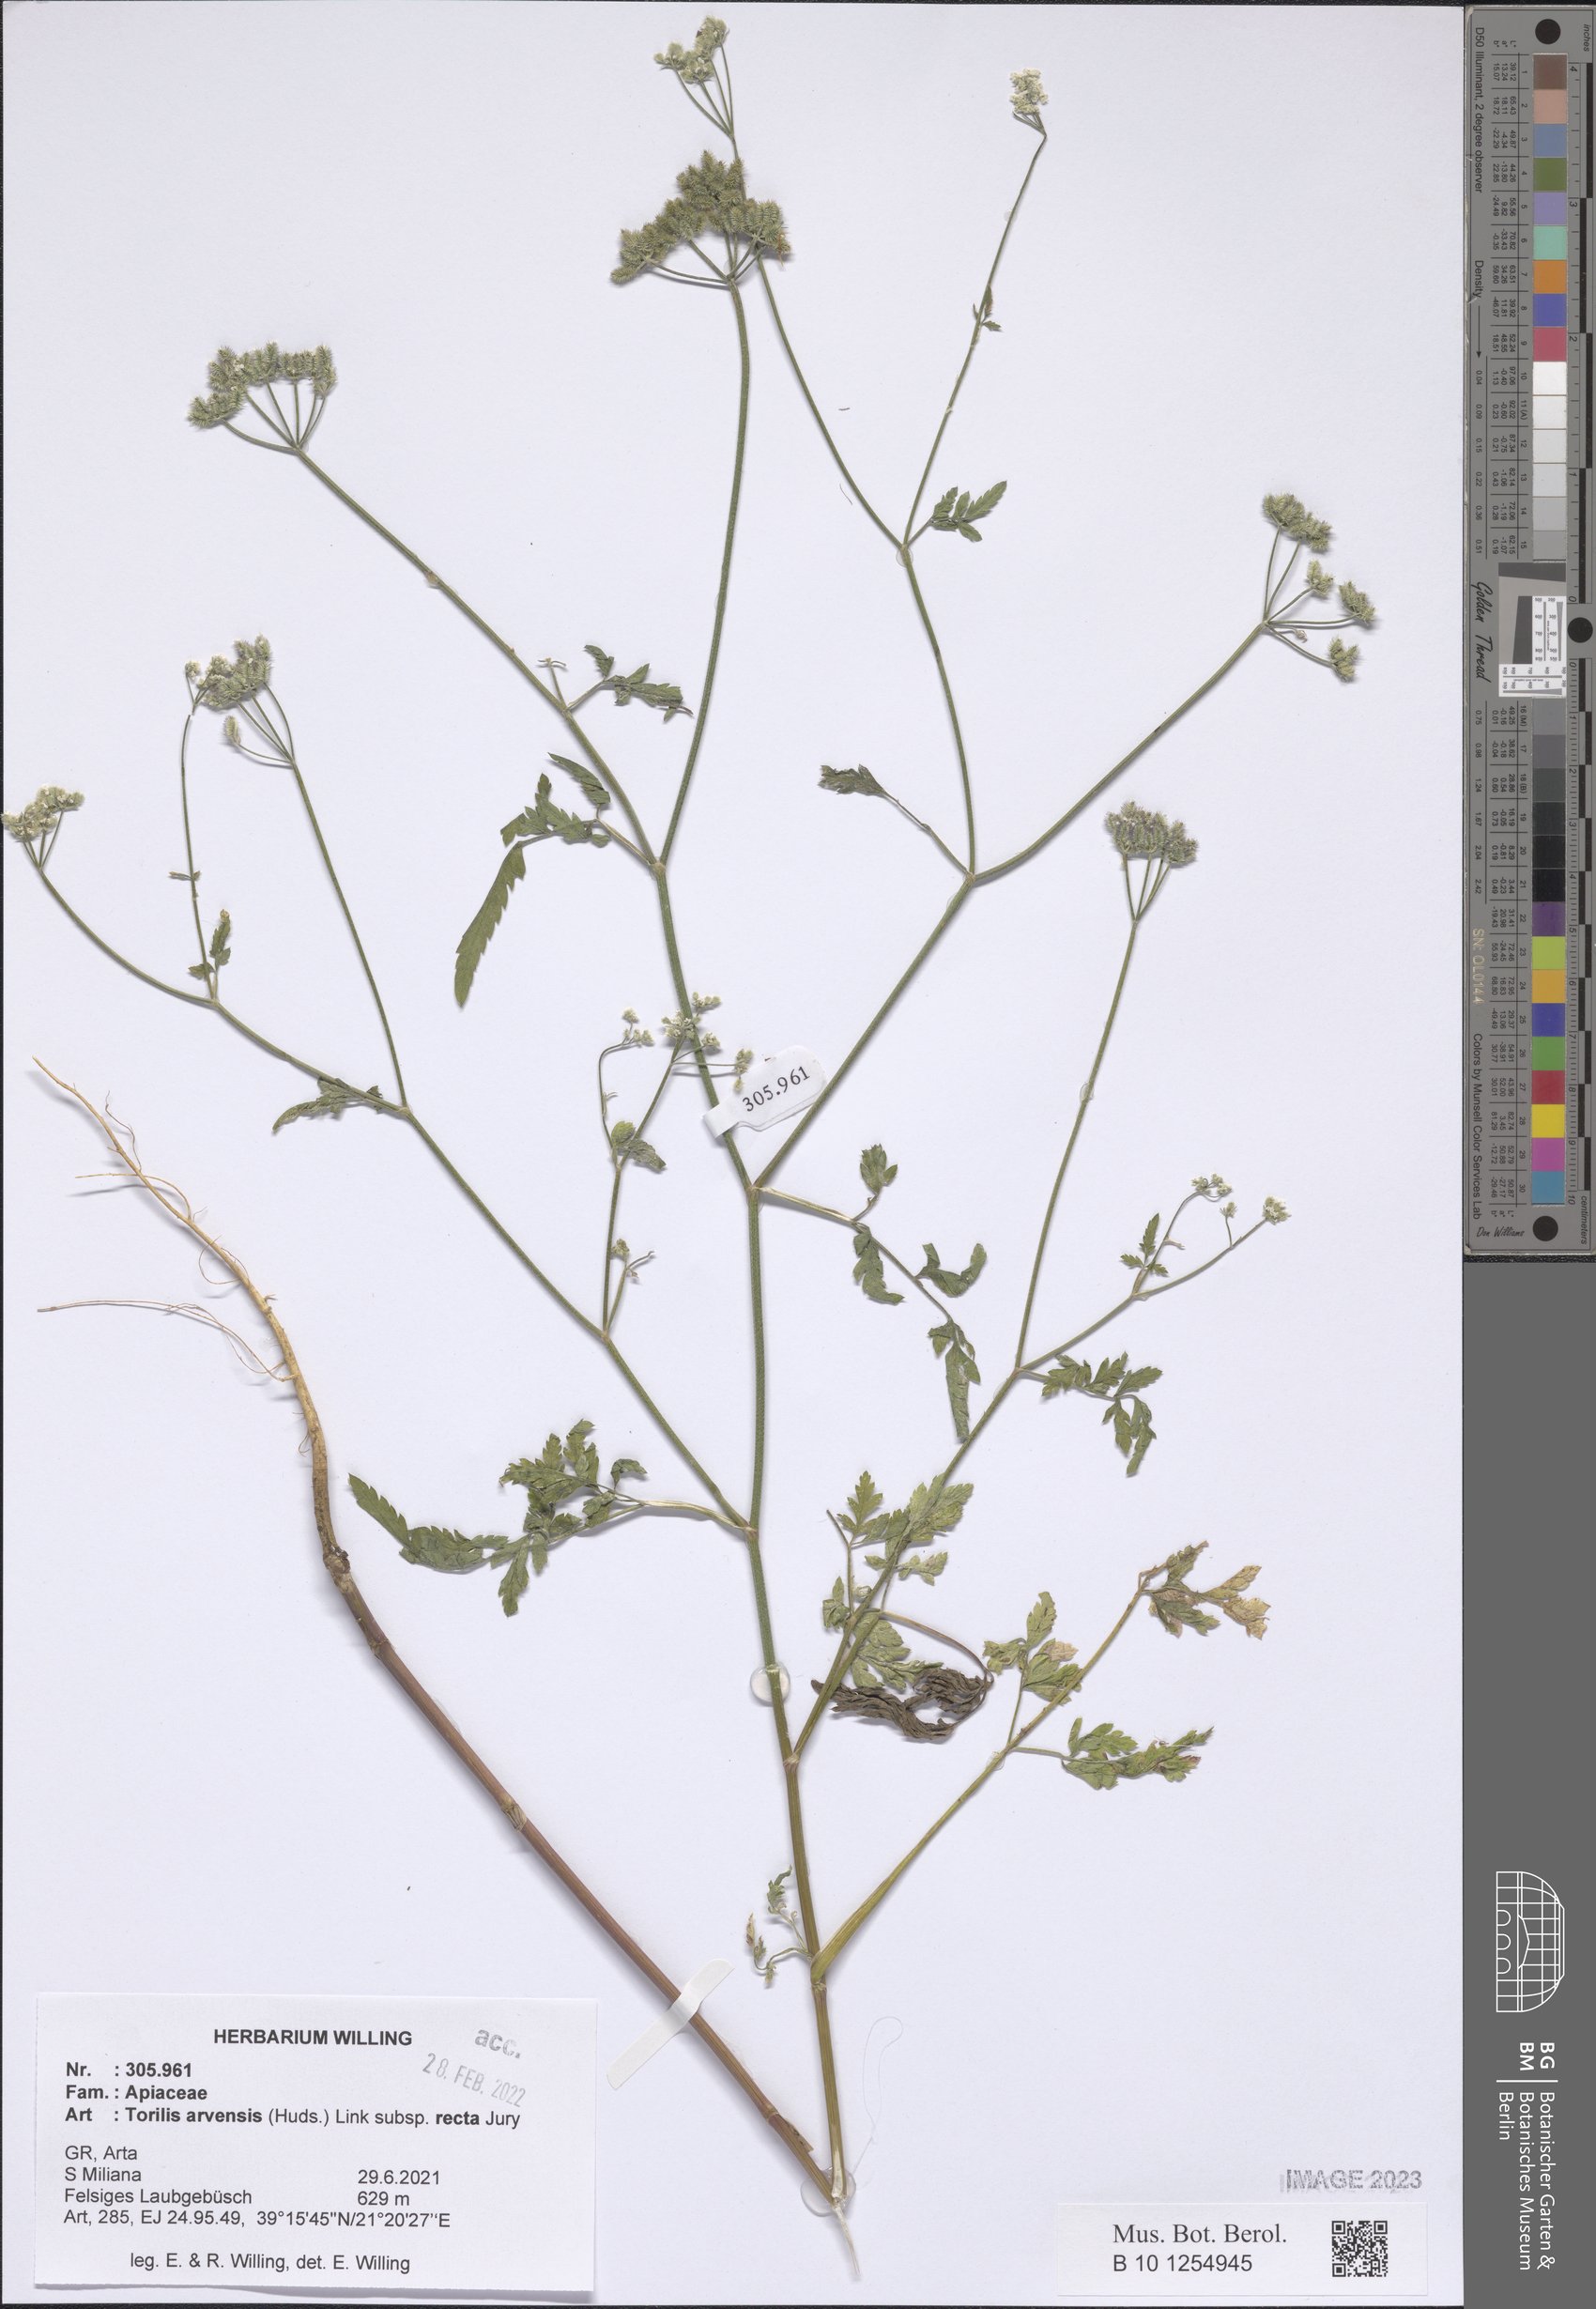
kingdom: Plantae
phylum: Tracheophyta
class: Magnoliopsida
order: Apiales
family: Apiaceae
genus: Torilis
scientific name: Torilis arvensis
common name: Spreading hedge-parsley
